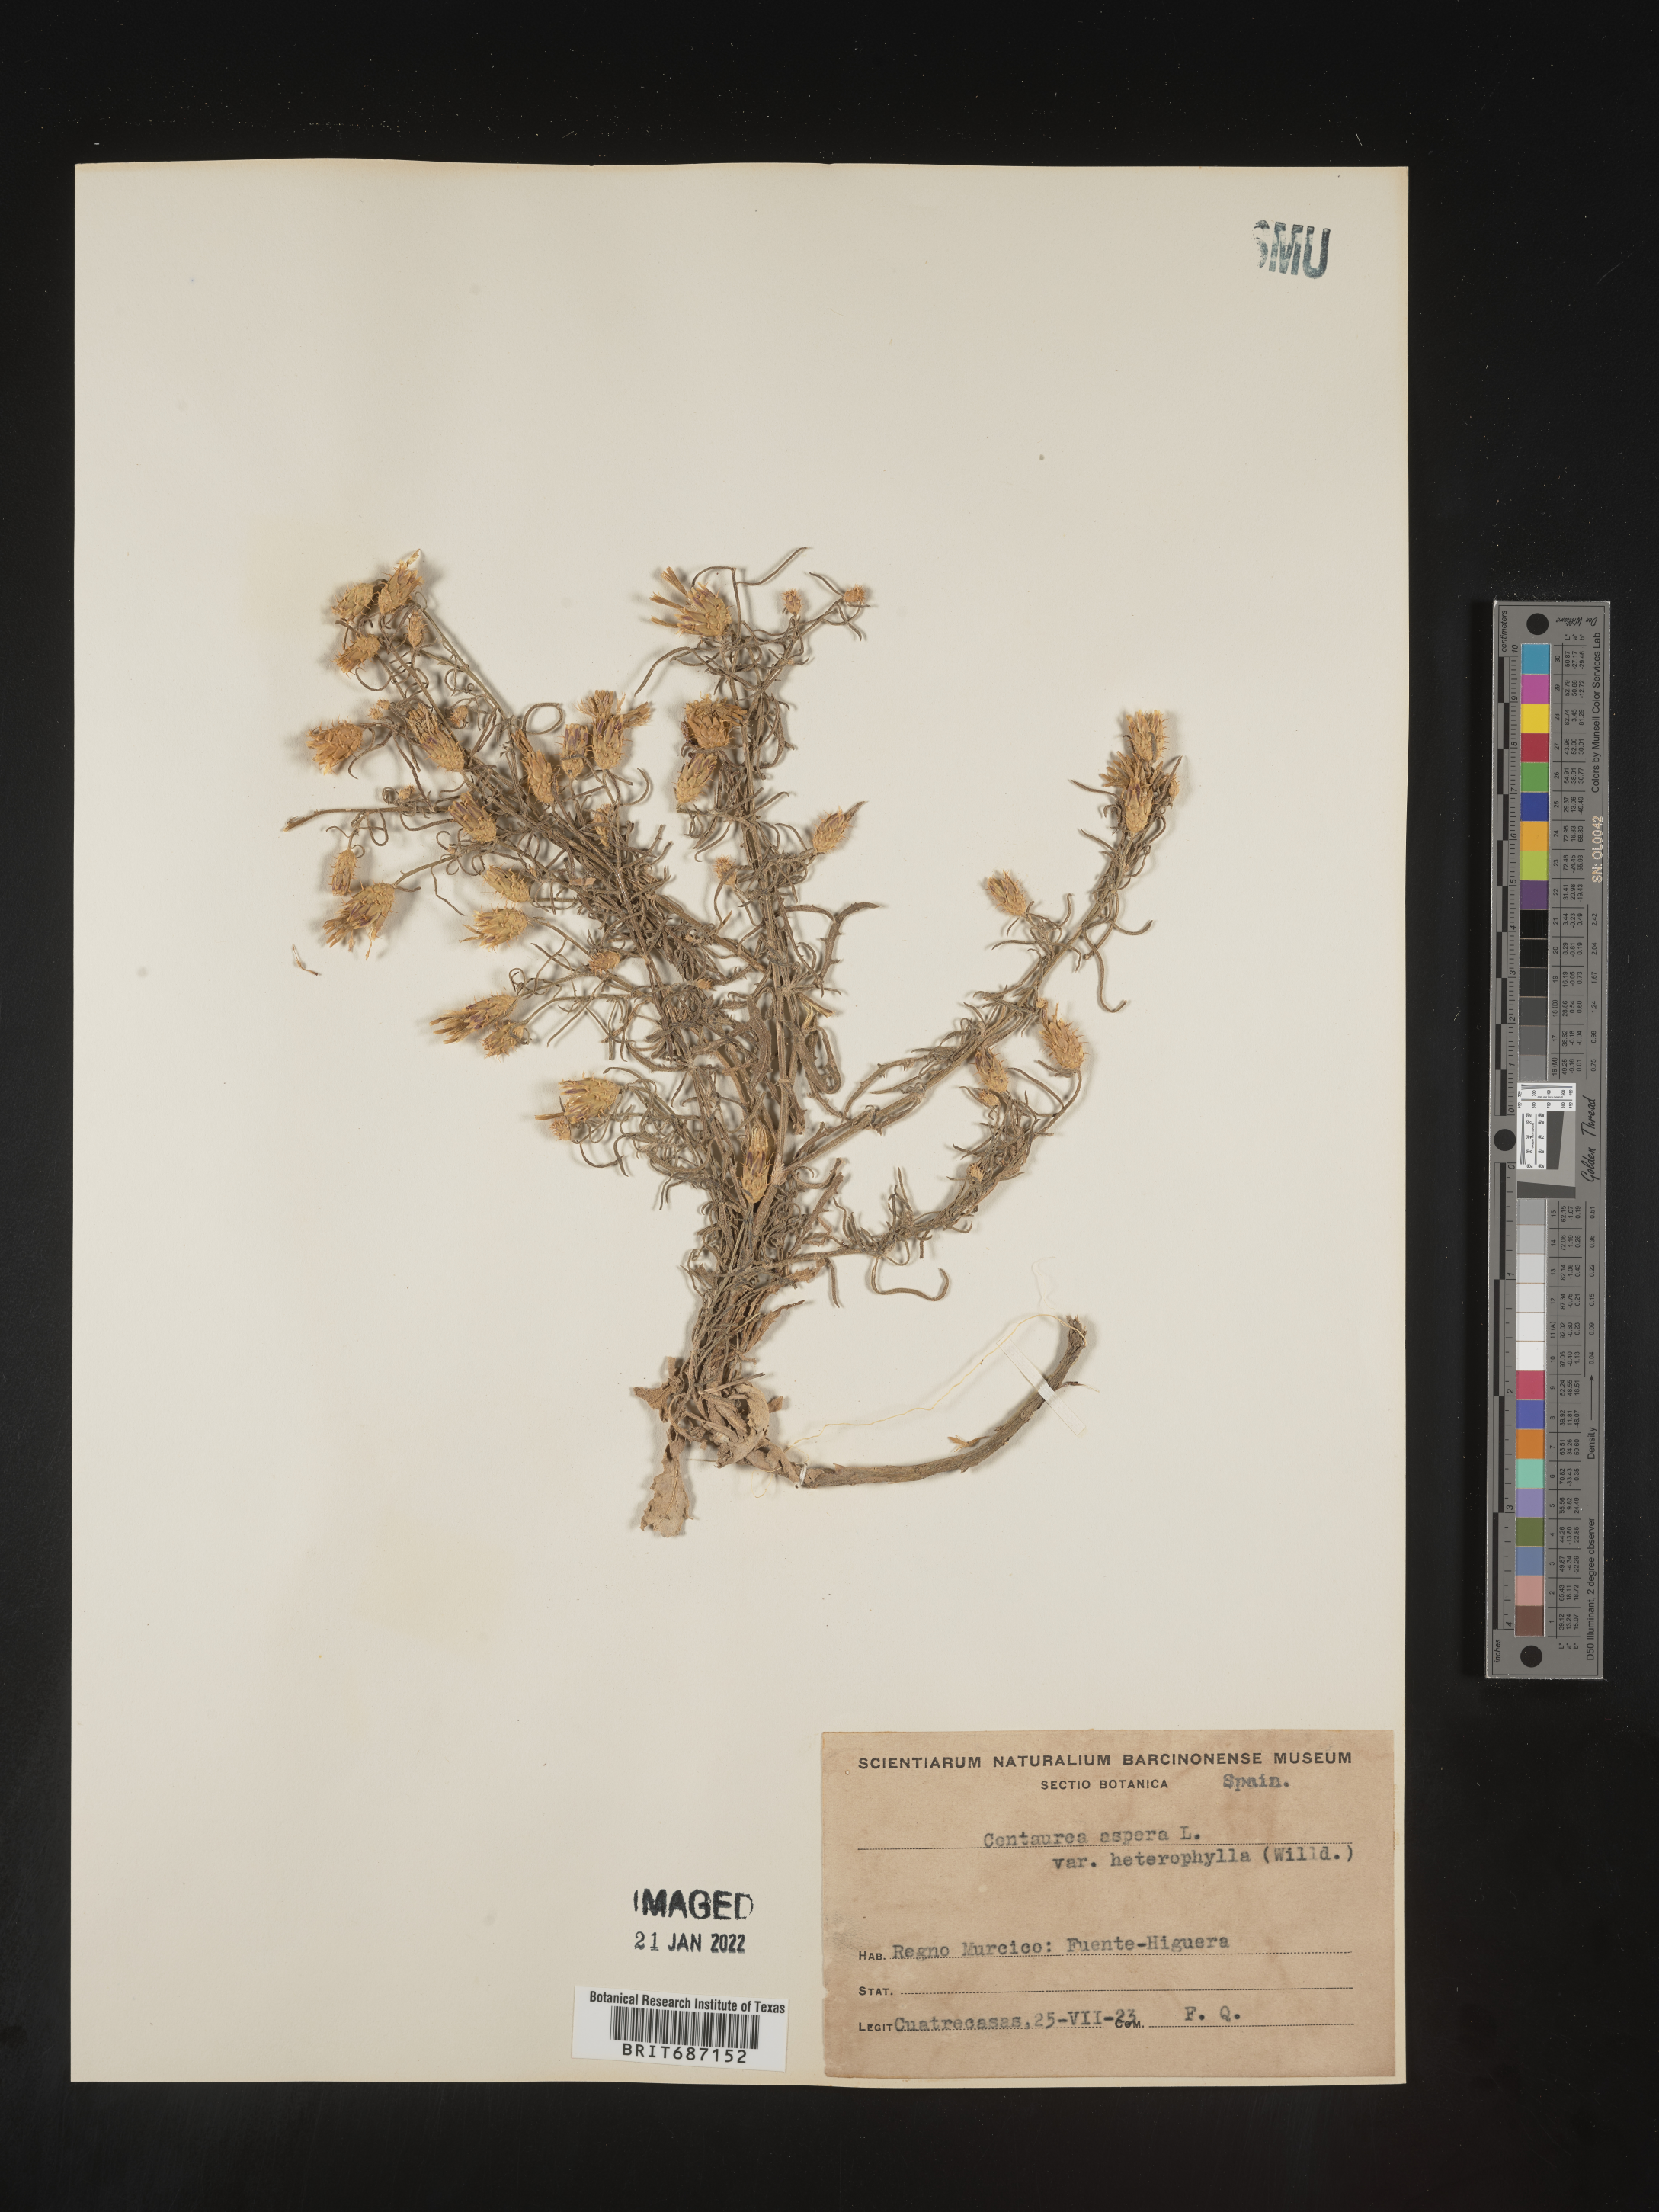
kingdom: Plantae
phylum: Tracheophyta
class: Magnoliopsida
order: Asterales
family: Asteraceae
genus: Centaurea
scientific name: Centaurea
